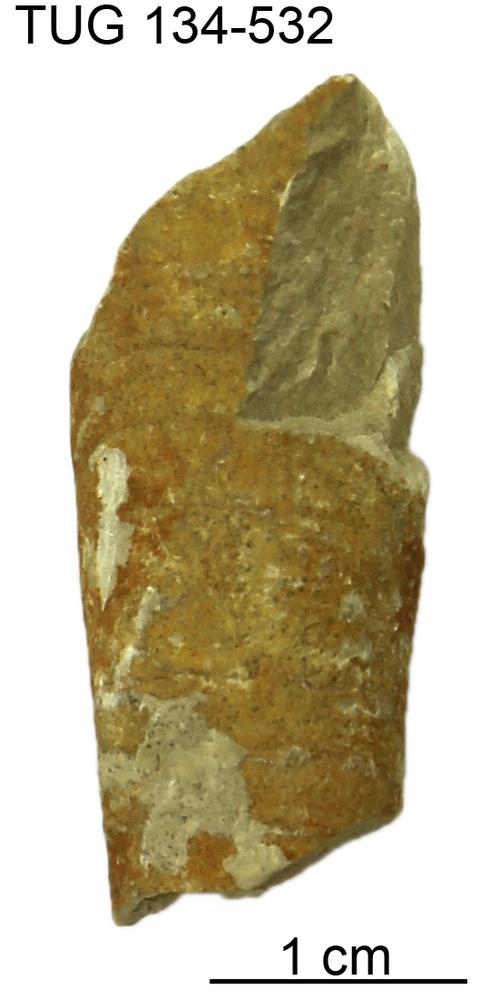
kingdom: Animalia
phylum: Mollusca
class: Cephalopoda
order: Orthocerida
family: Orthoceratidae
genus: Orthoceras
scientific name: Orthoceras
